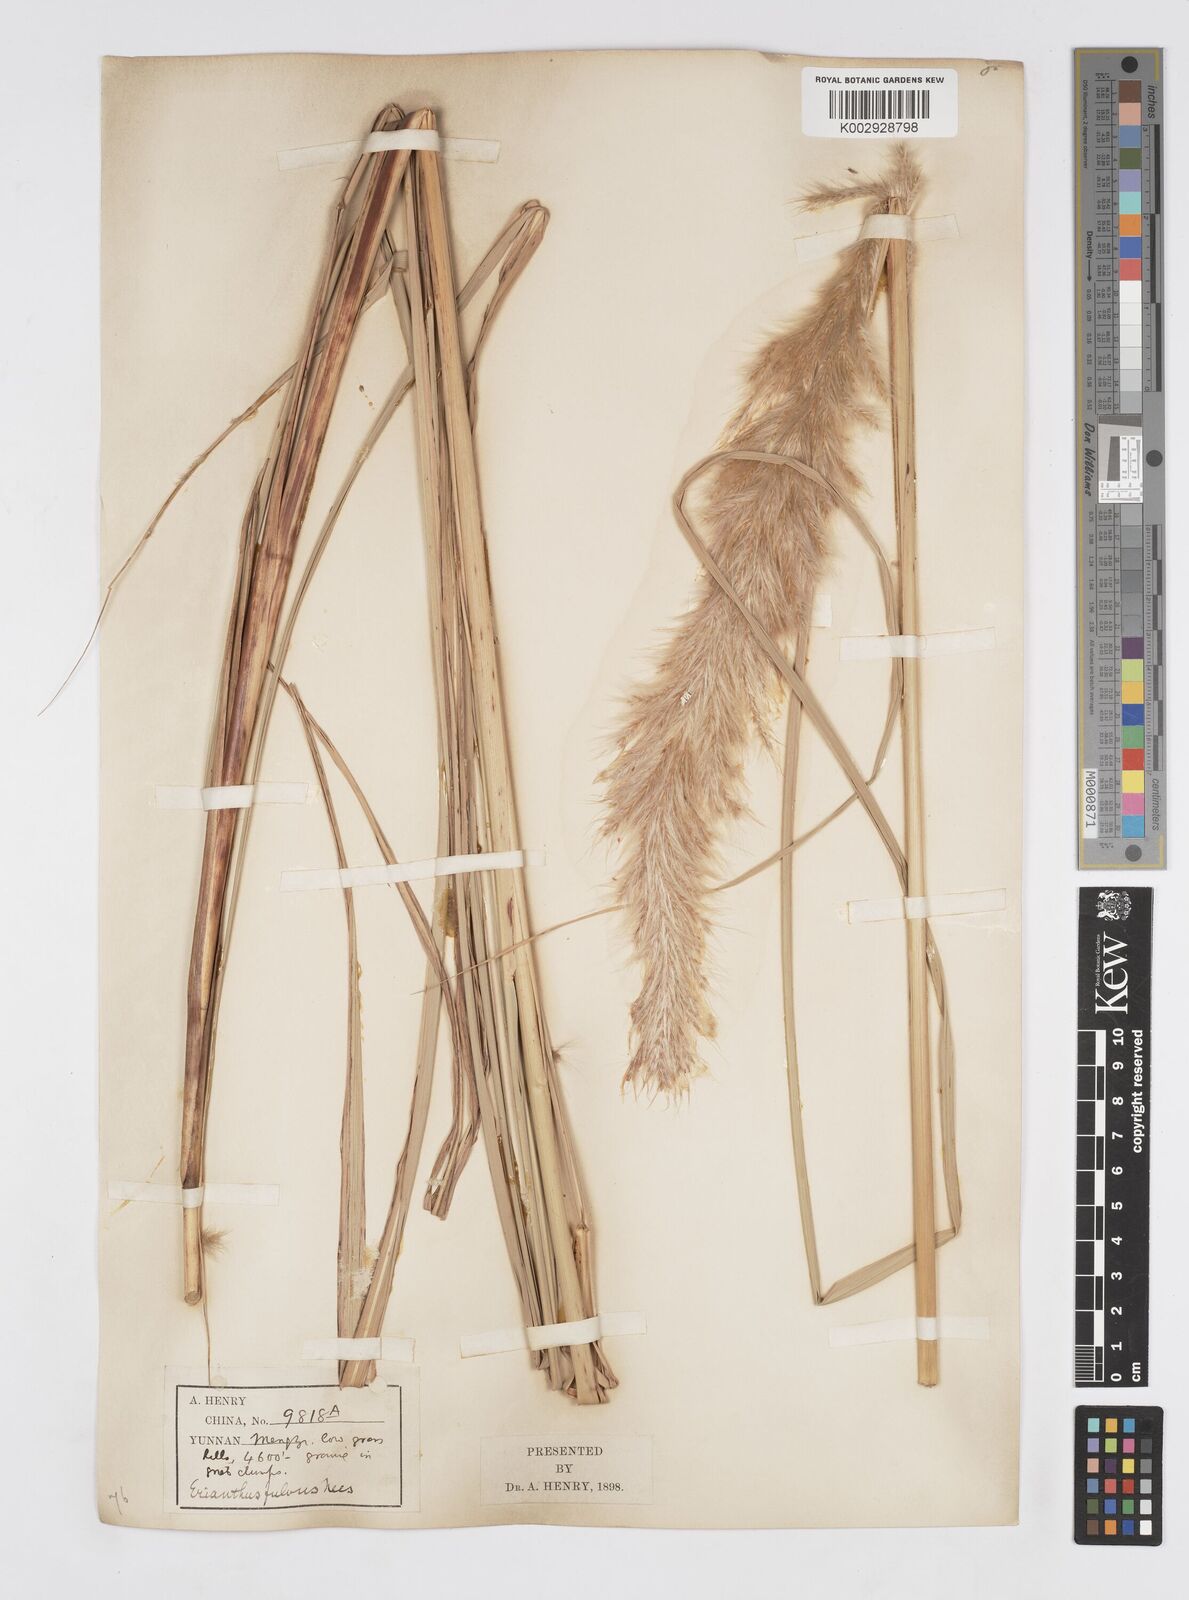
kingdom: Plantae
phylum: Tracheophyta
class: Liliopsida
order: Poales
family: Poaceae
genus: Tripidium
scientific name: Tripidium rufipilum
